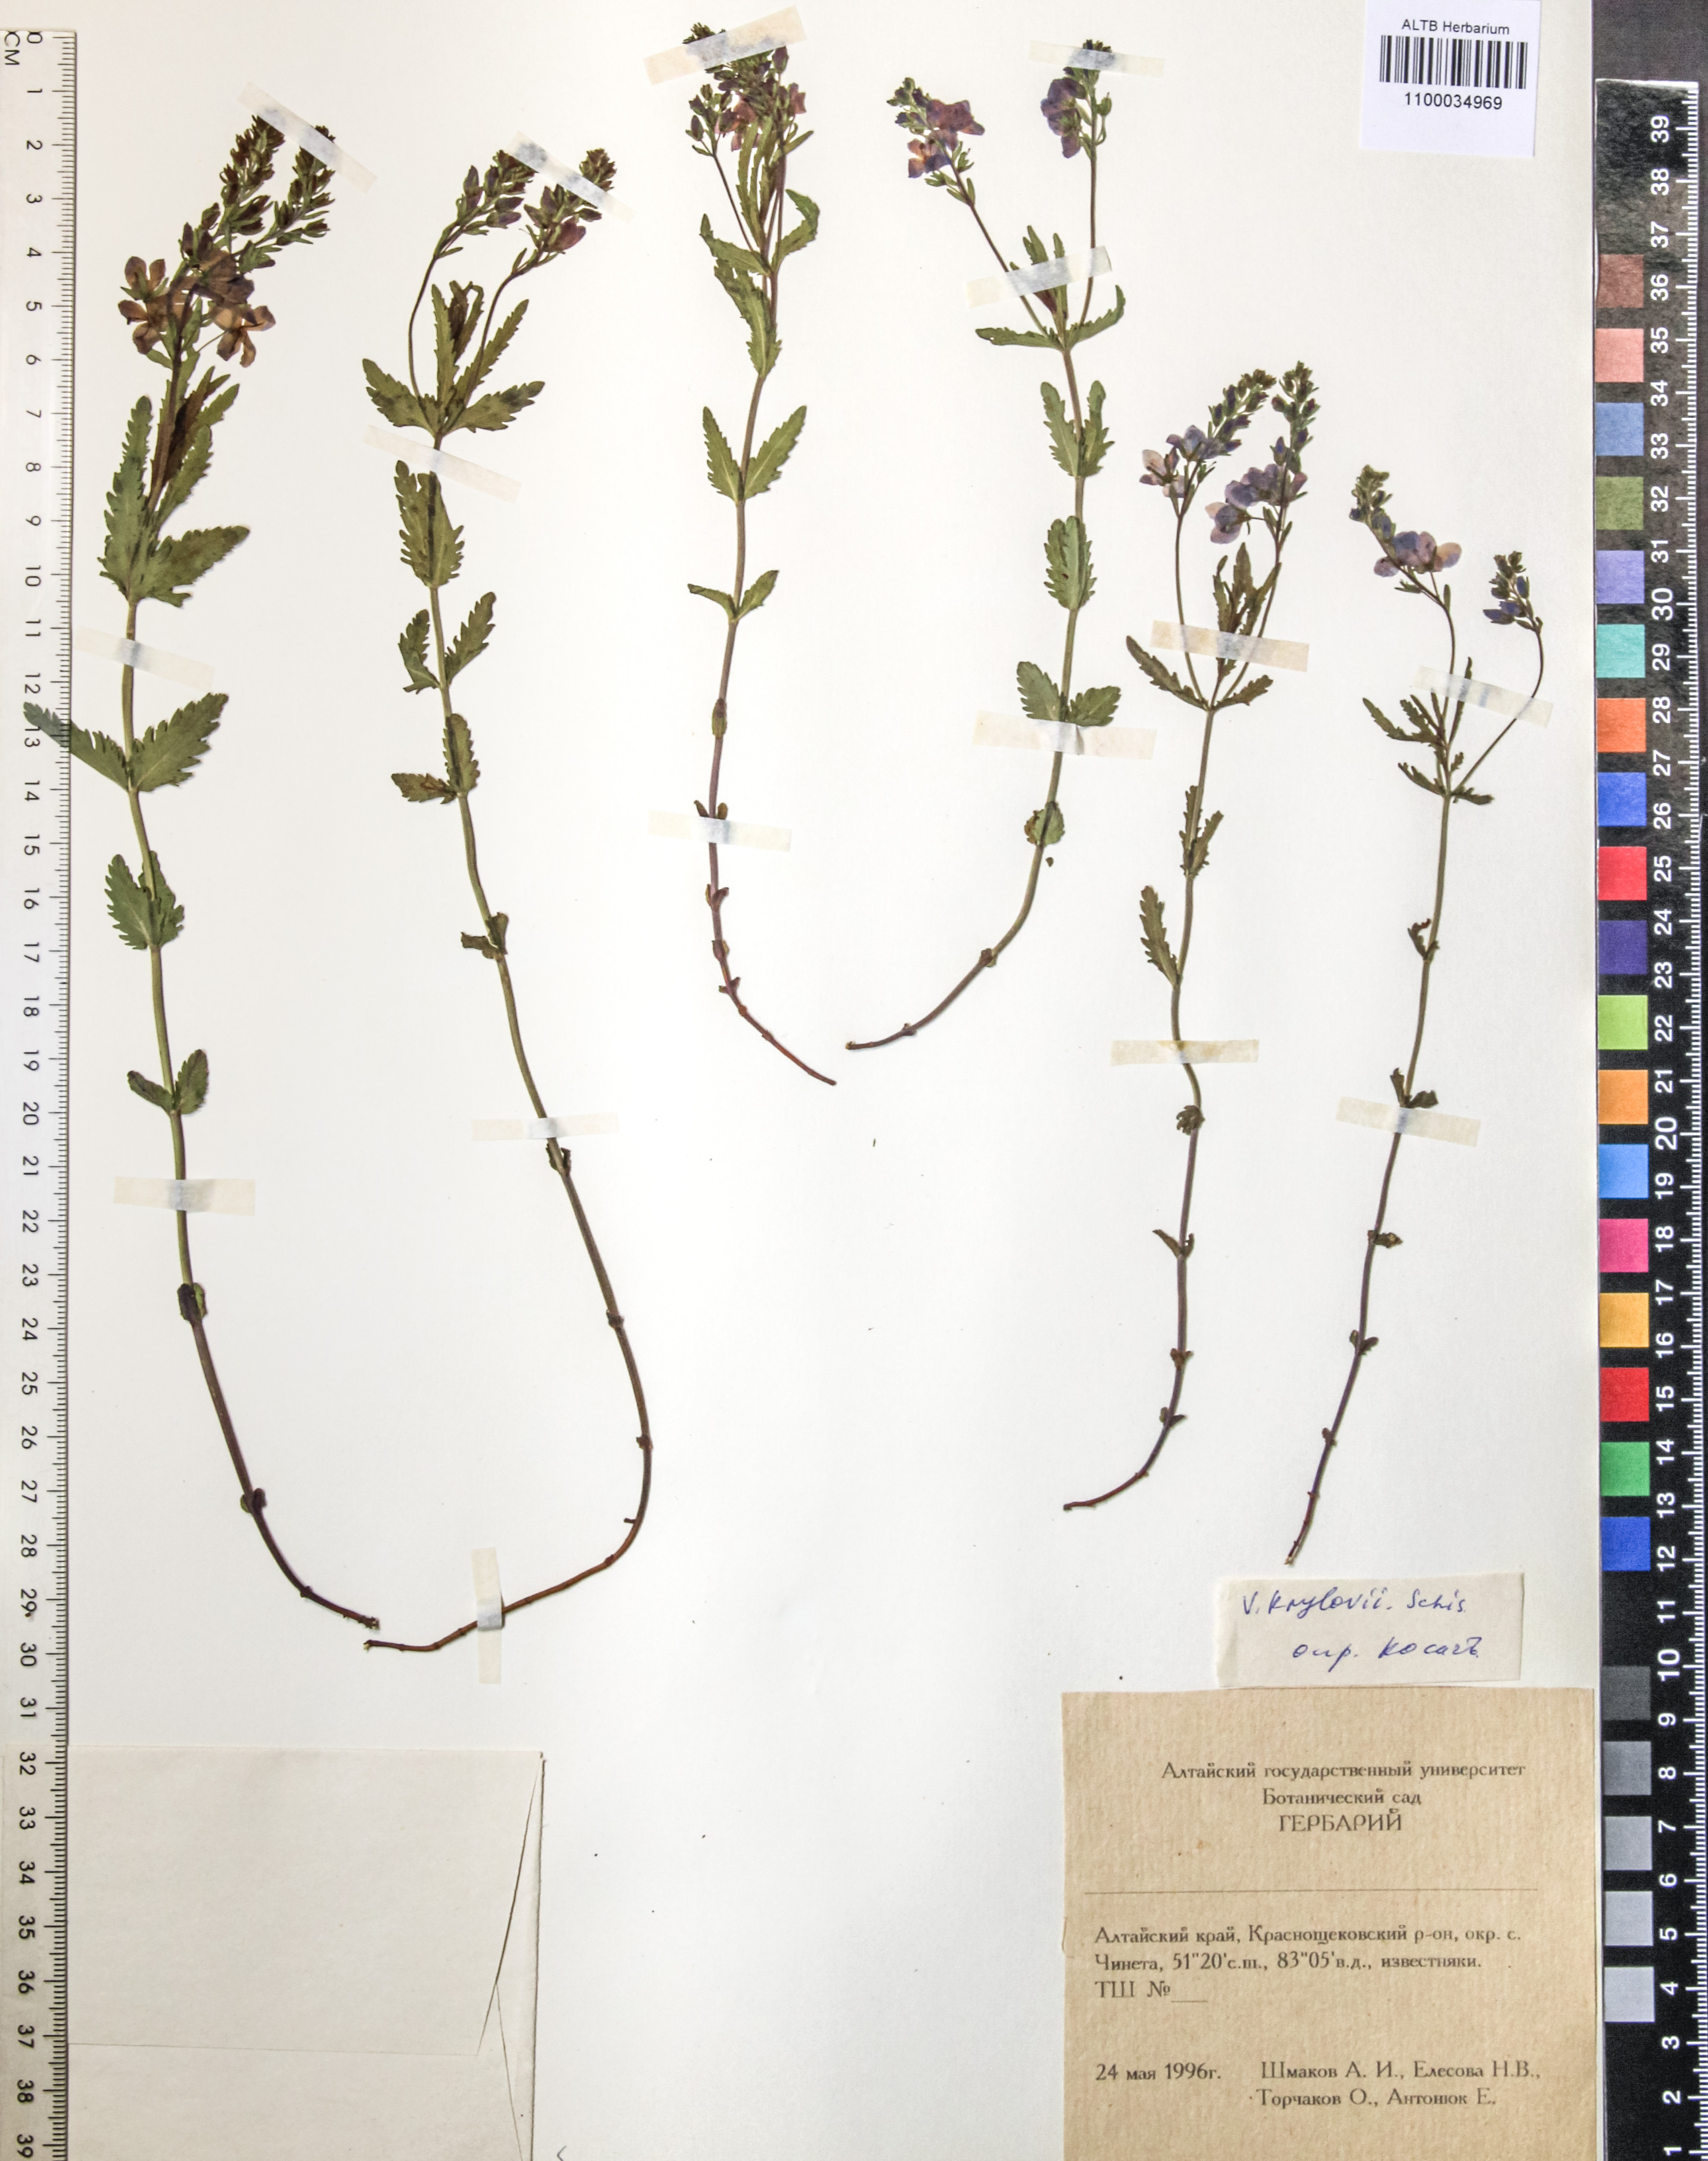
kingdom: Plantae
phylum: Tracheophyta
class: Magnoliopsida
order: Lamiales
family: Plantaginaceae
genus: Veronica
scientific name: Veronica krylovii
